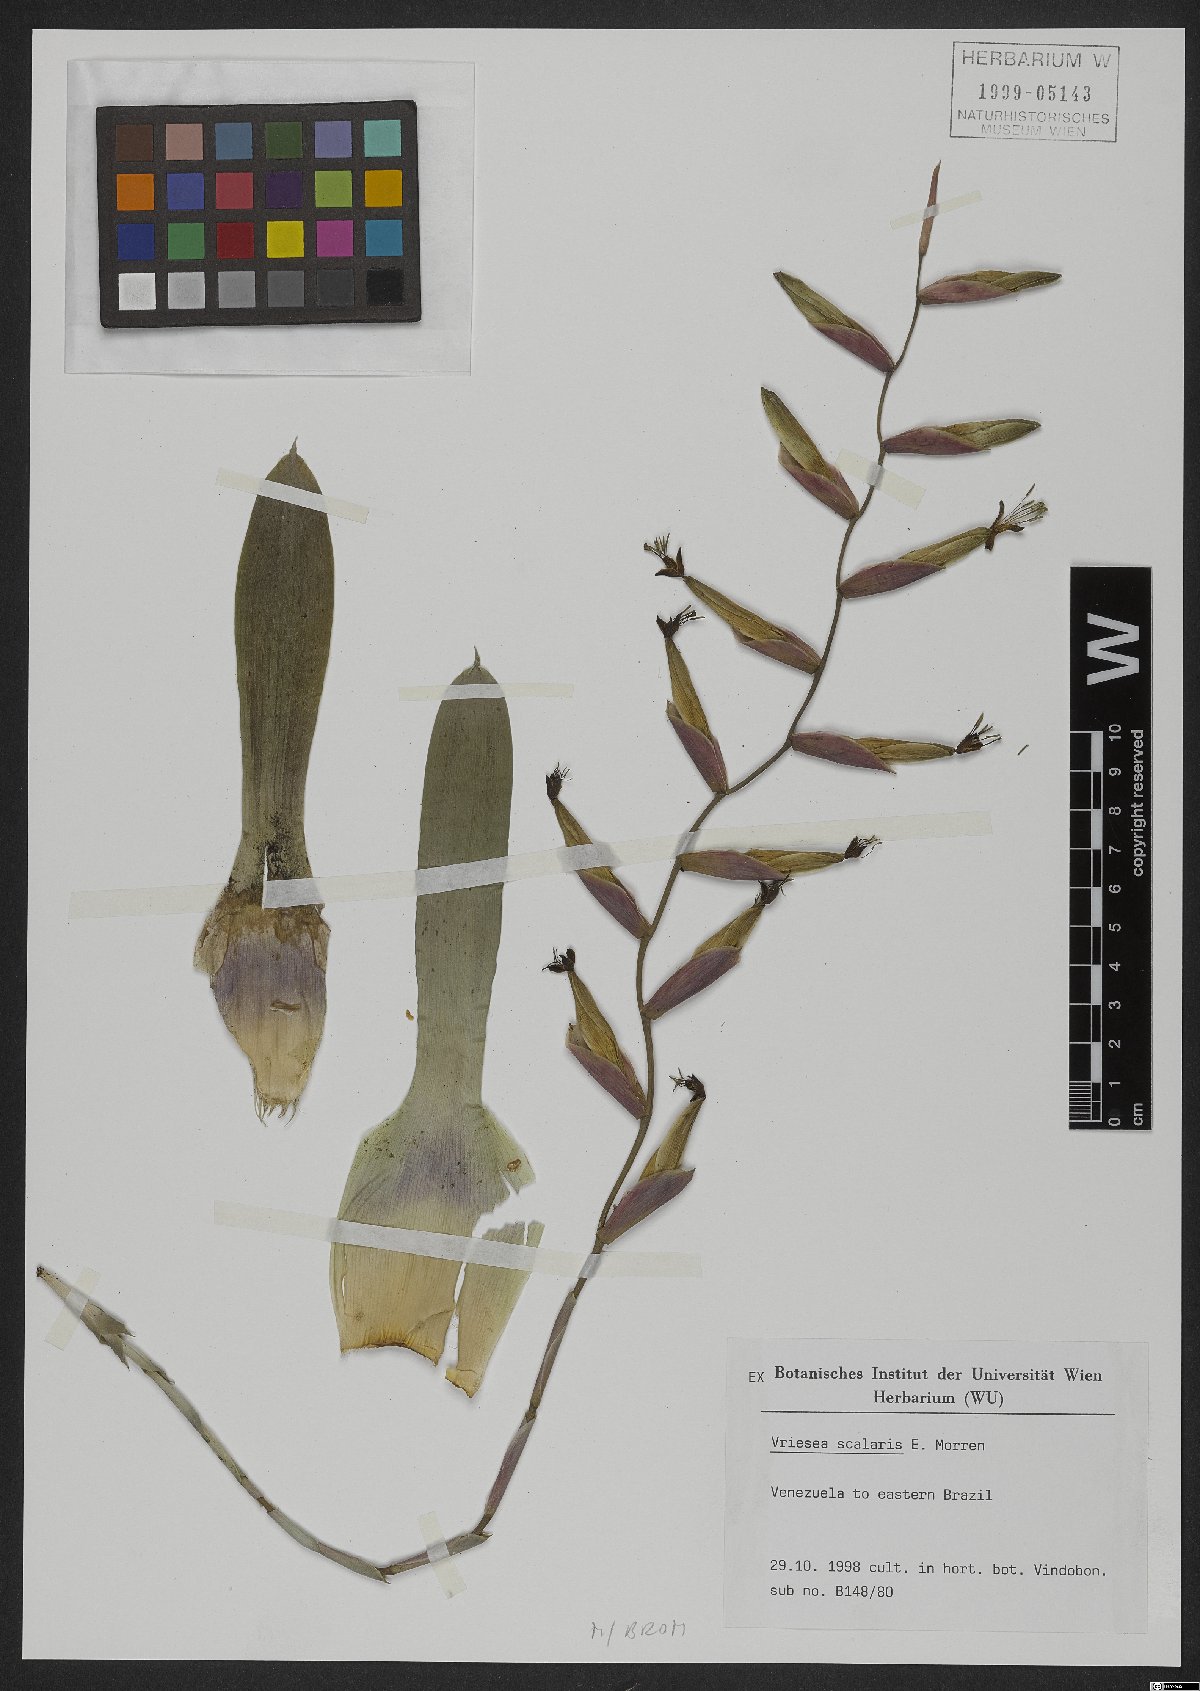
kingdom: Plantae
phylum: Tracheophyta
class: Liliopsida
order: Poales
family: Bromeliaceae
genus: Vriesea
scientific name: Vriesea scalaris
